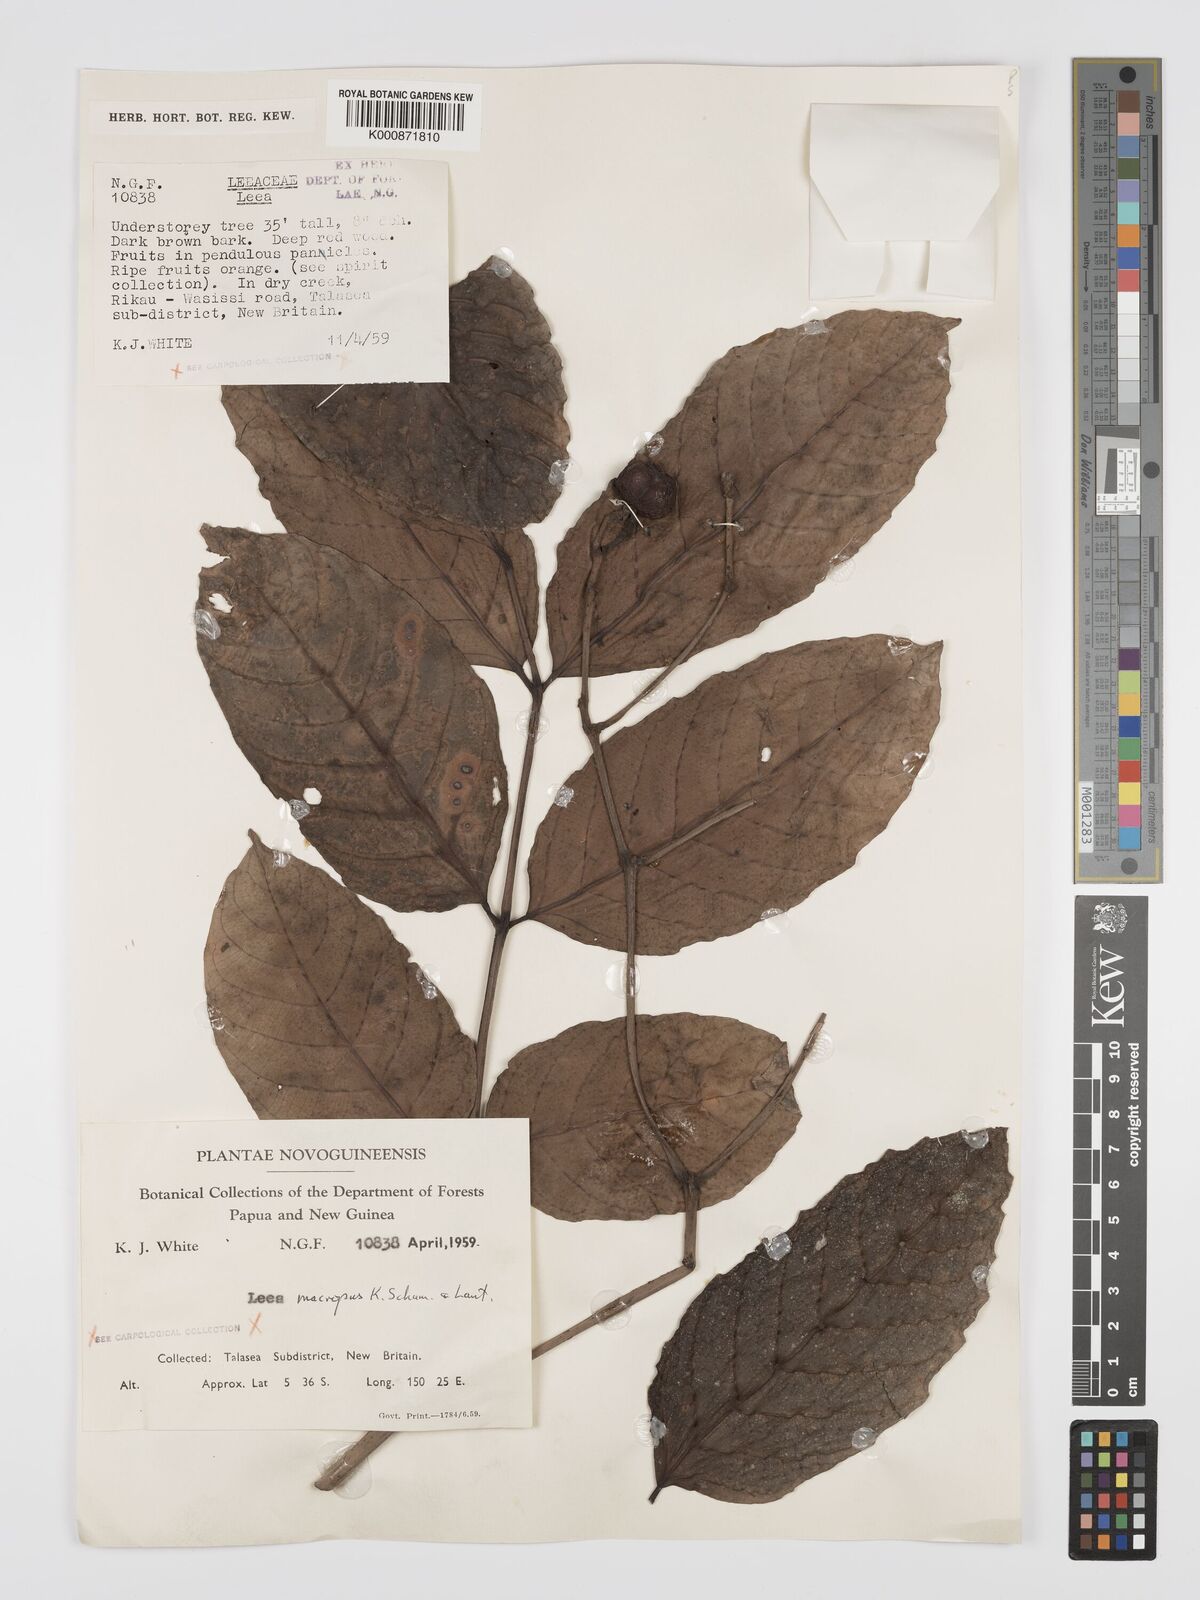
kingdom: Plantae
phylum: Tracheophyta
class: Magnoliopsida
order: Vitales
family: Vitaceae
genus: Leea
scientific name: Leea macropus
